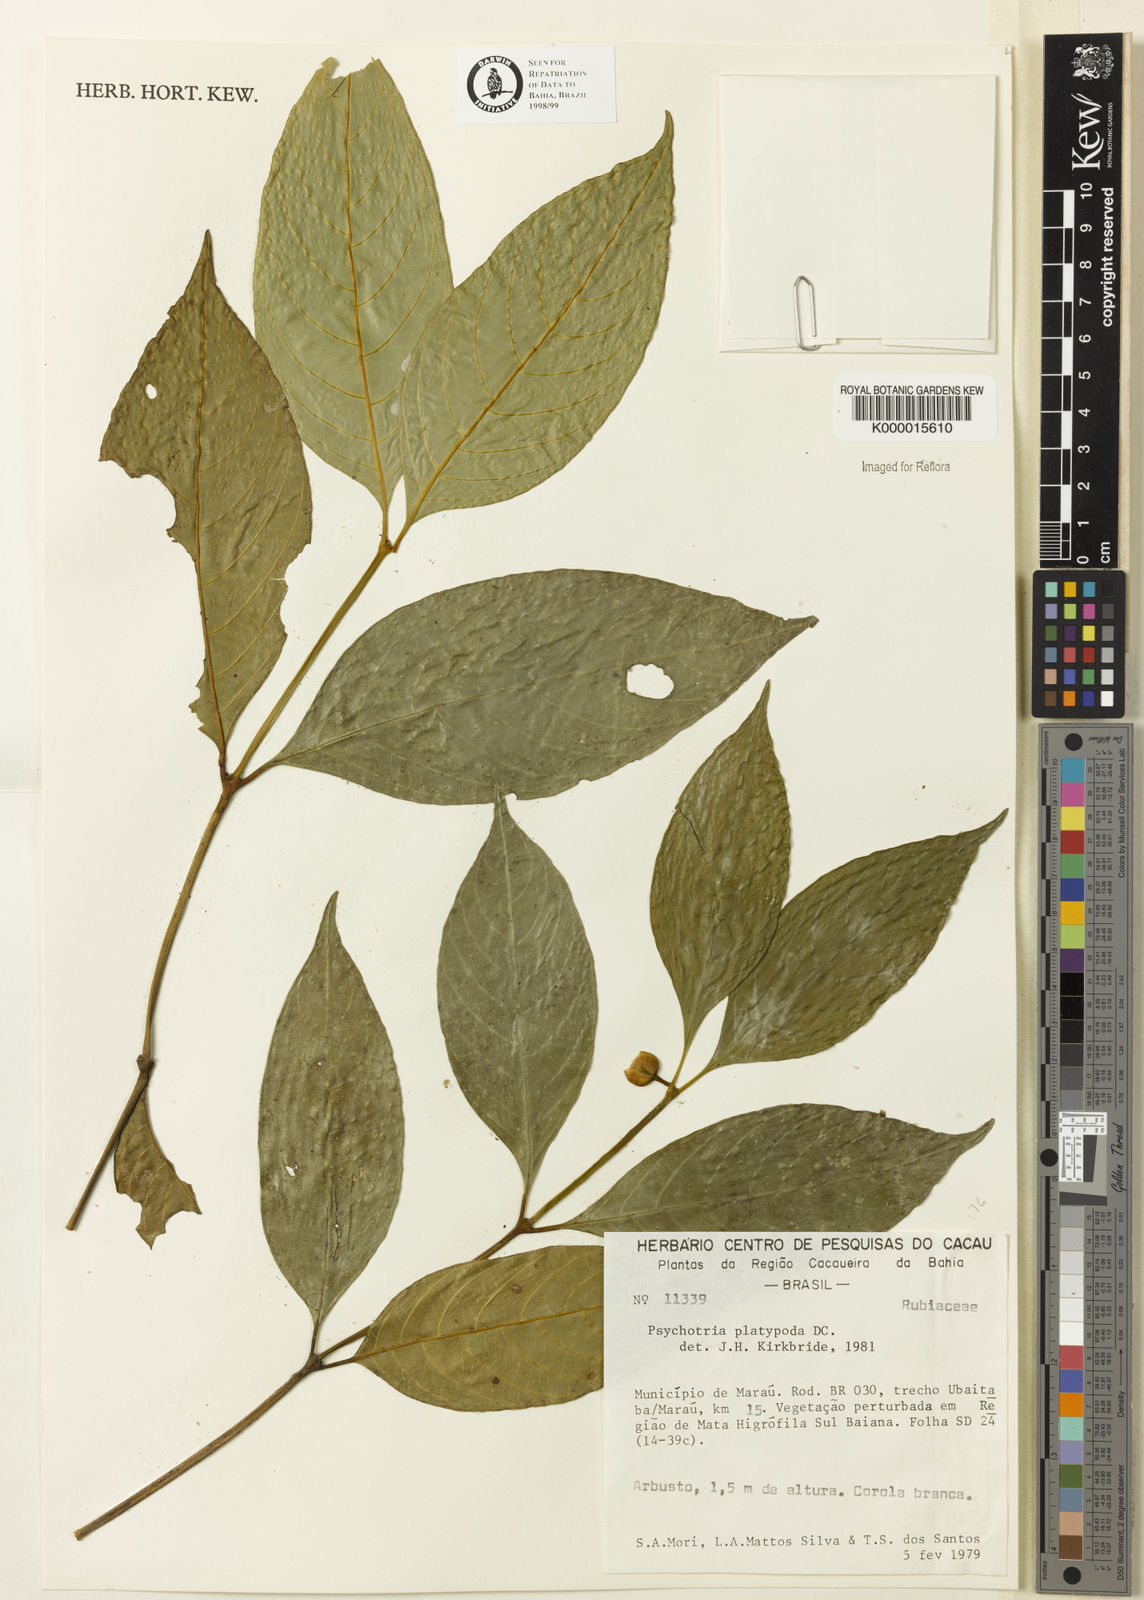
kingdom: Plantae
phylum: Tracheophyta
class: Magnoliopsida
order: Gentianales
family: Rubiaceae
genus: Palicourea
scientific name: Palicourea dichotoma
